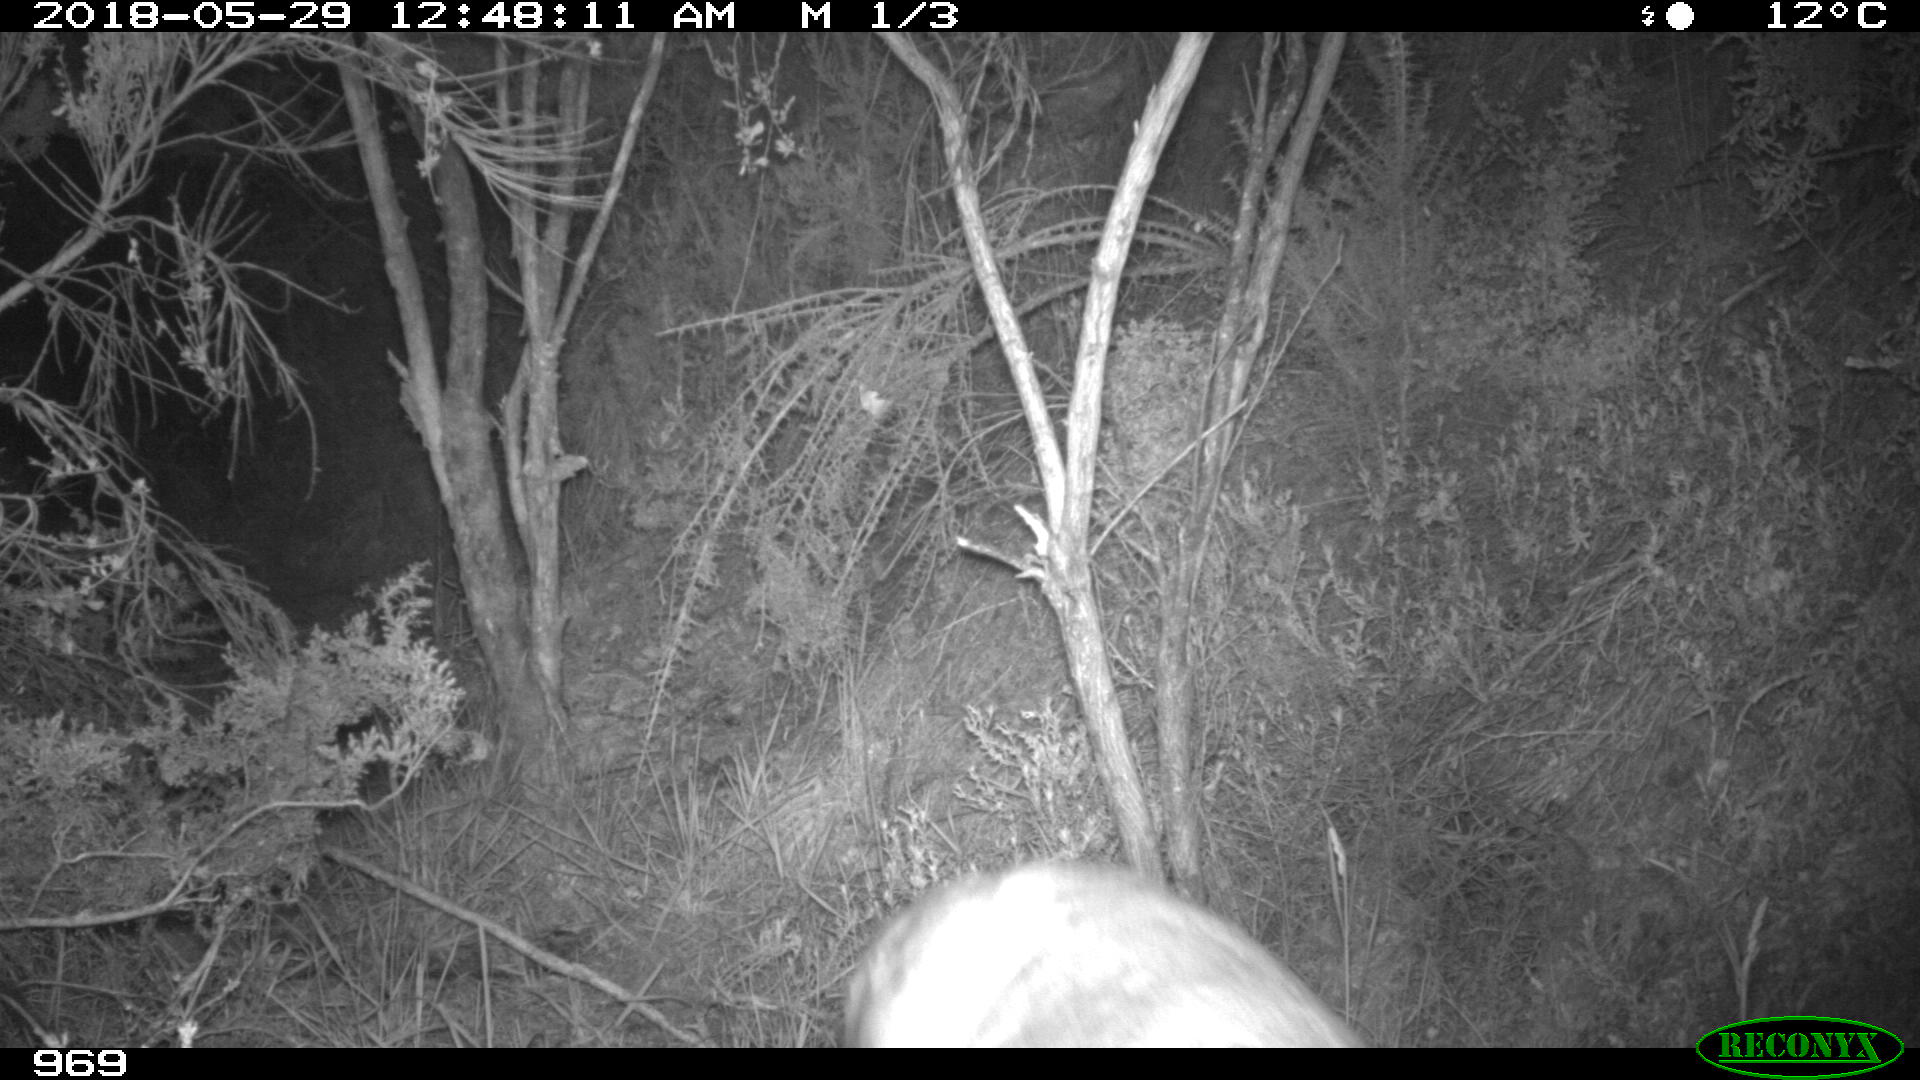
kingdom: Animalia
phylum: Chordata
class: Mammalia
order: Artiodactyla
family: Cervidae
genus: Capreolus
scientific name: Capreolus capreolus
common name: Western roe deer
